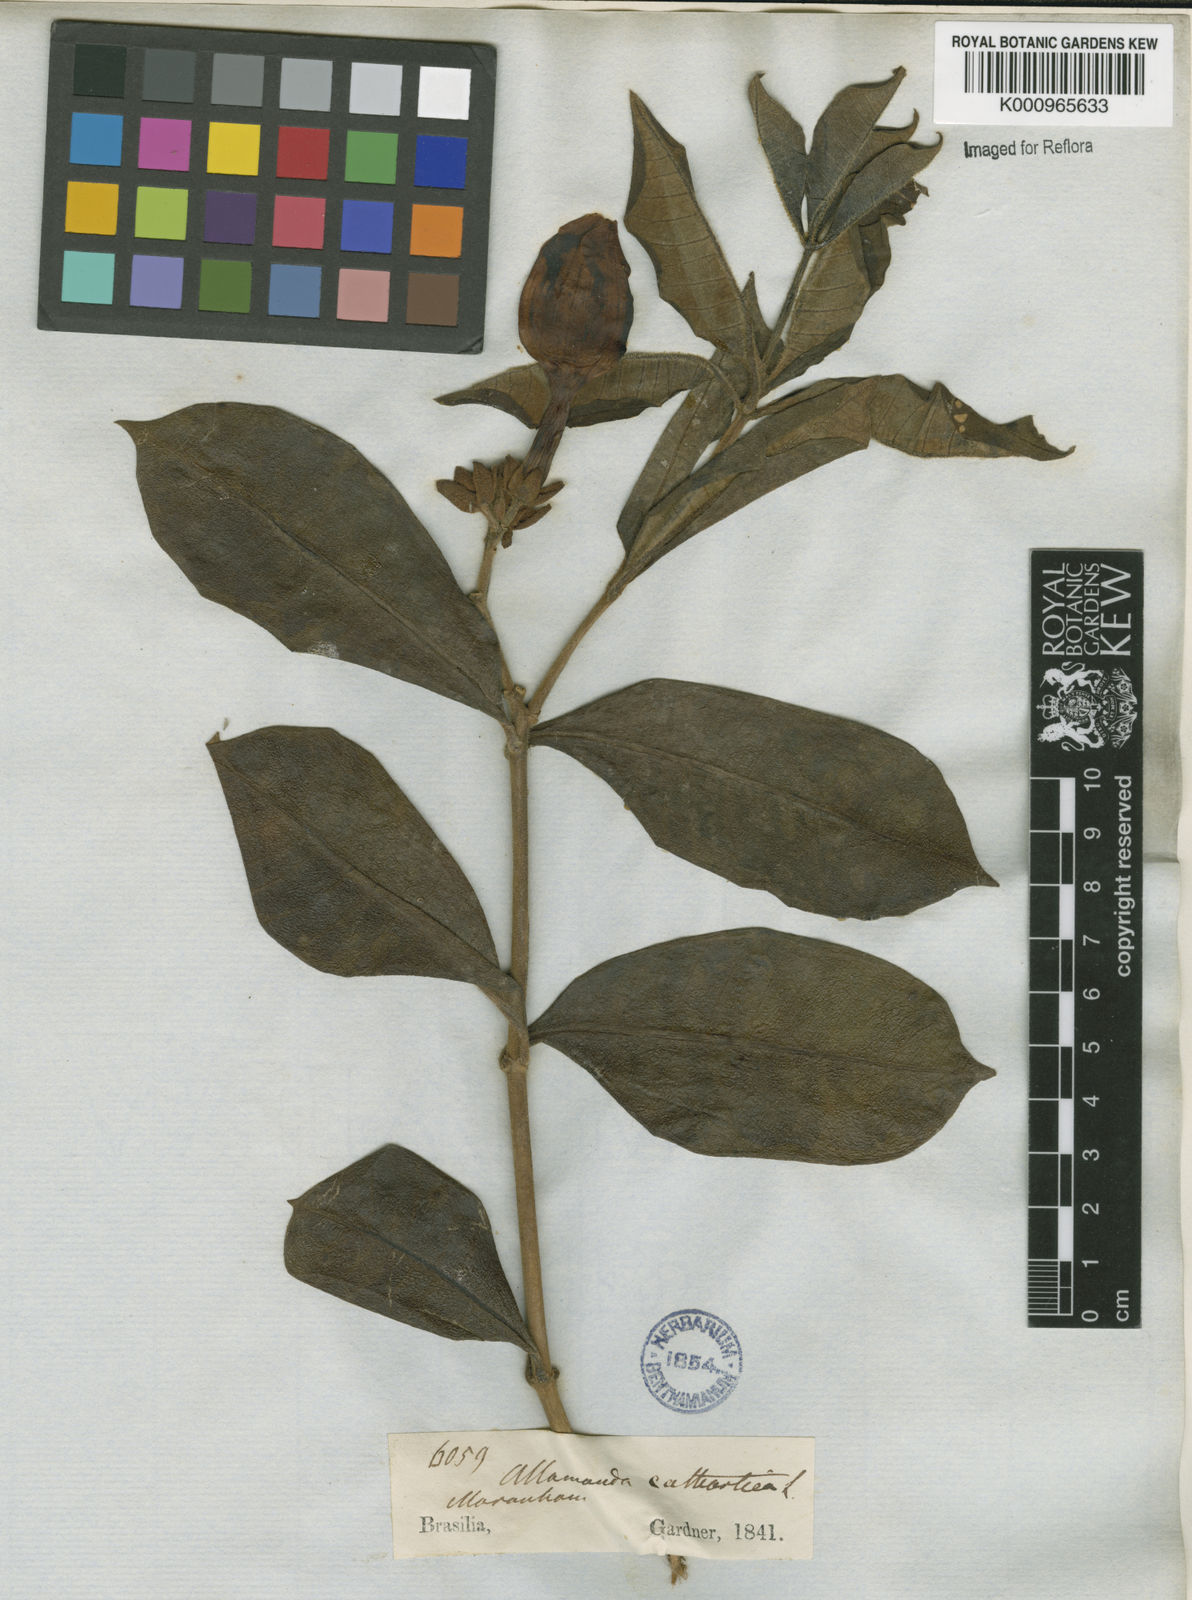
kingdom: Plantae
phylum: Tracheophyta
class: Magnoliopsida
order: Gentianales
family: Apocynaceae
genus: Allamanda
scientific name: Allamanda cathartica
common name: Golden trumpet
